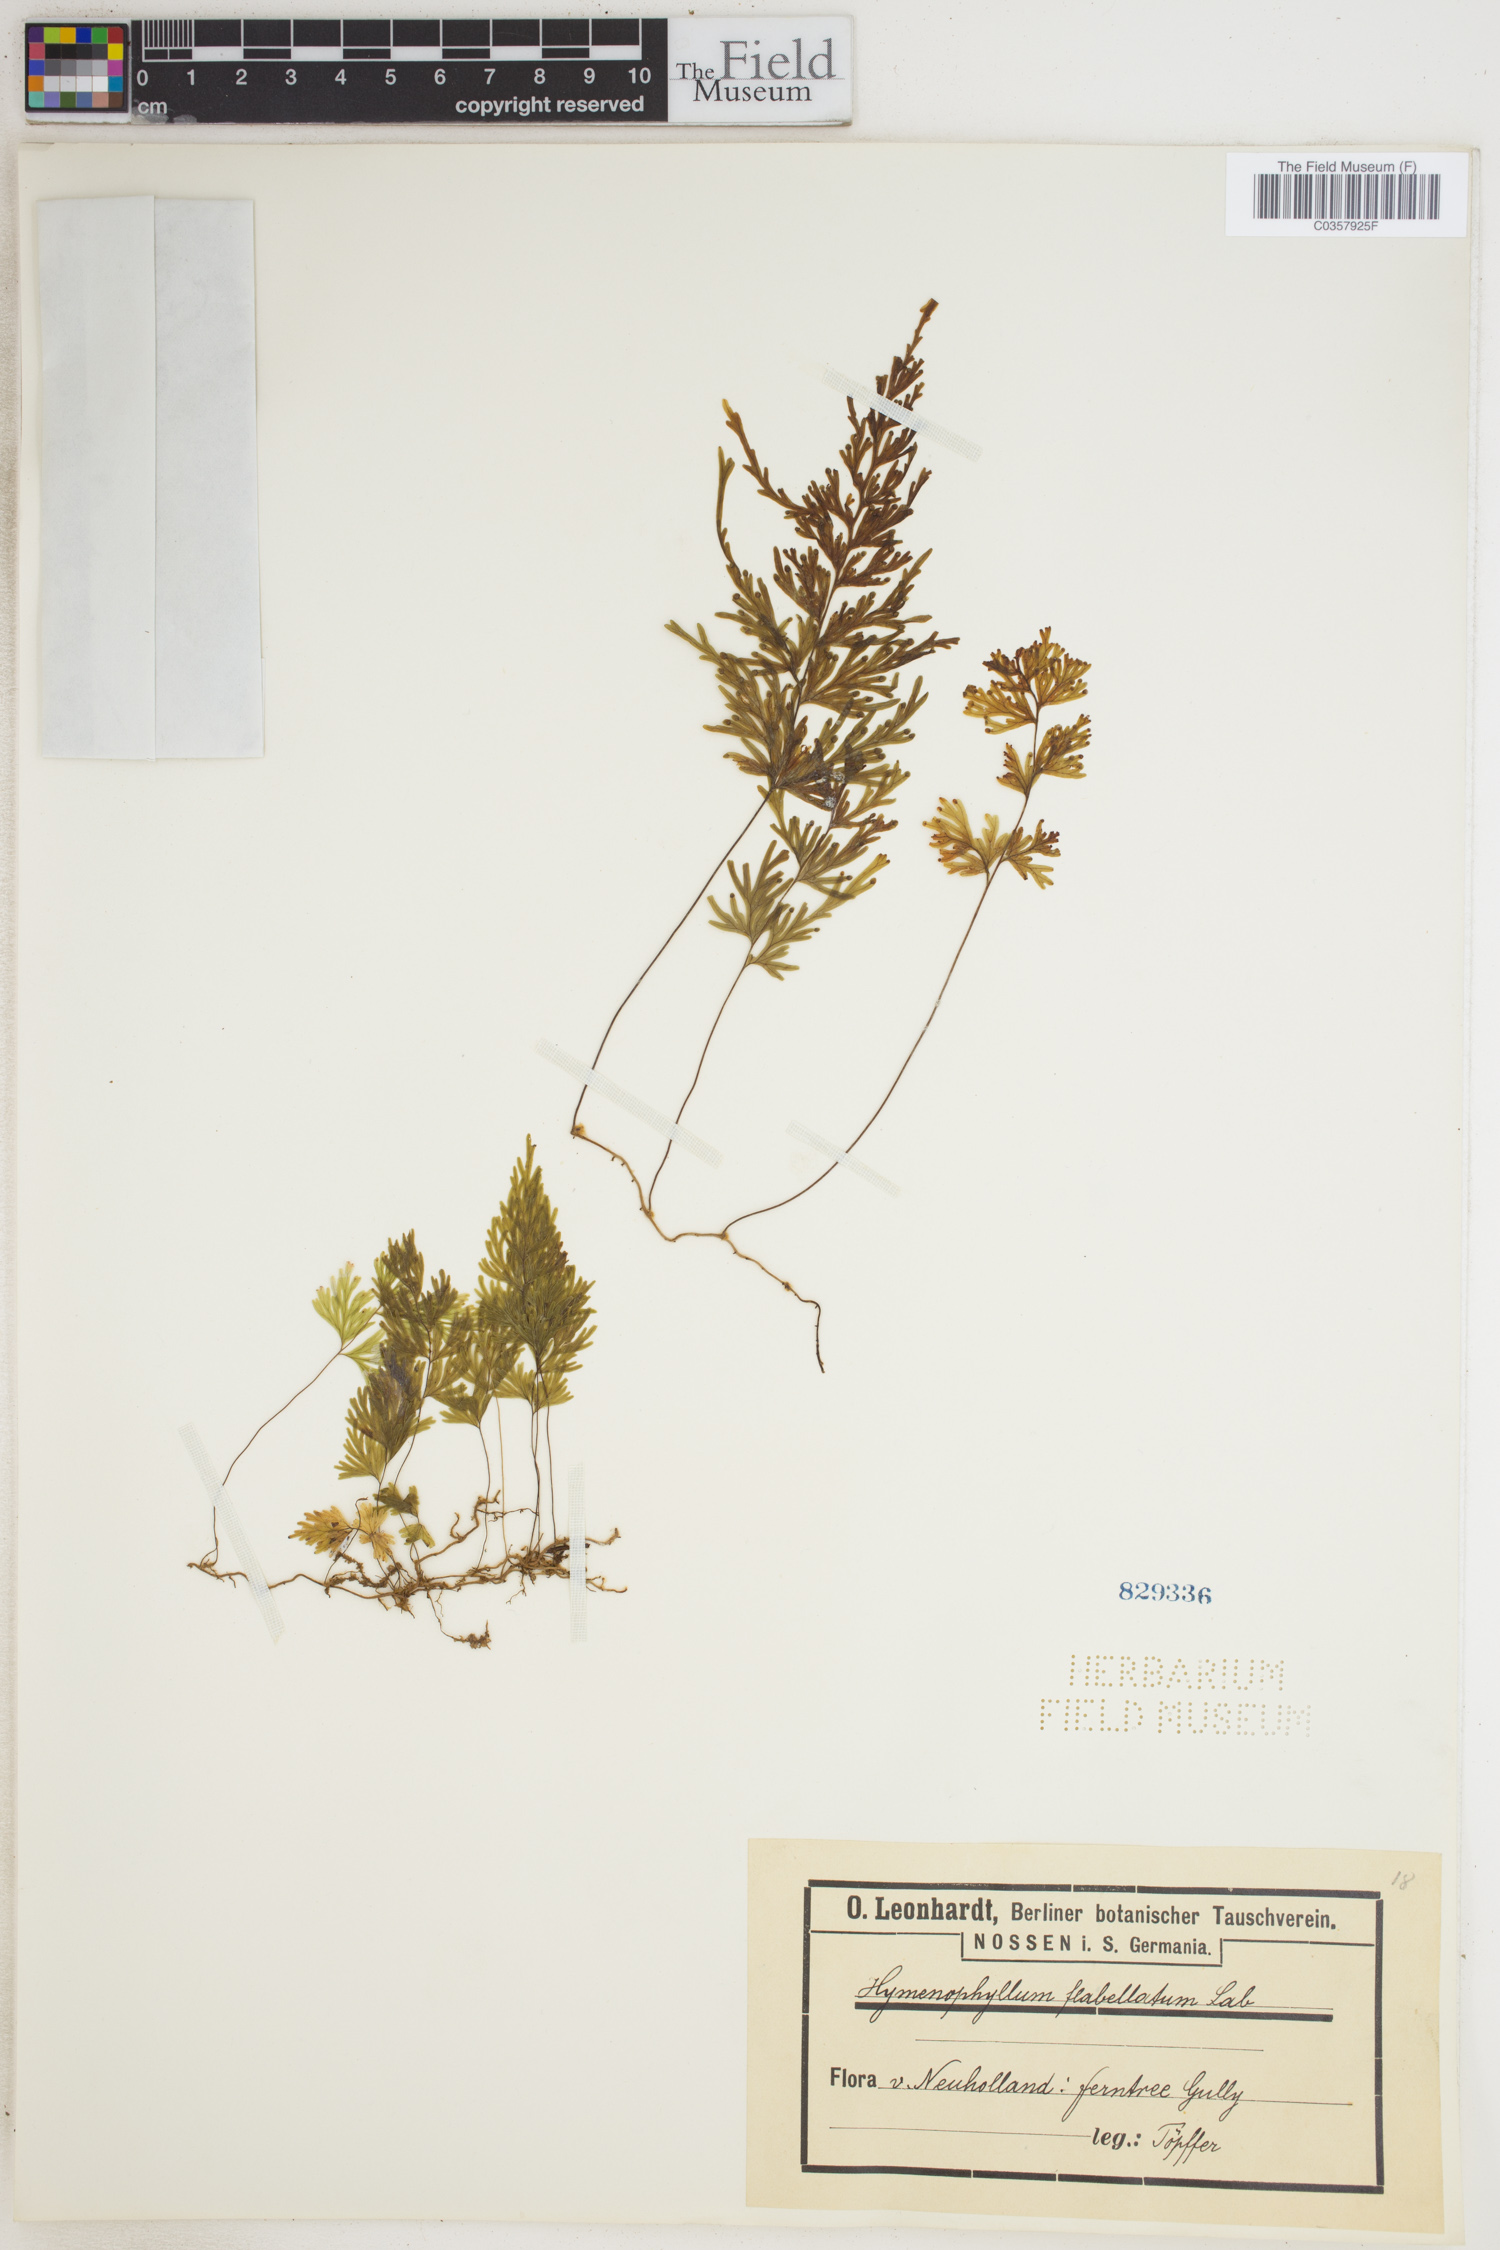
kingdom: Plantae
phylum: Tracheophyta
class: Polypodiopsida
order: Hymenophyllales
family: Hymenophyllaceae
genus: Hymenophyllum
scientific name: Hymenophyllum flabellatum
